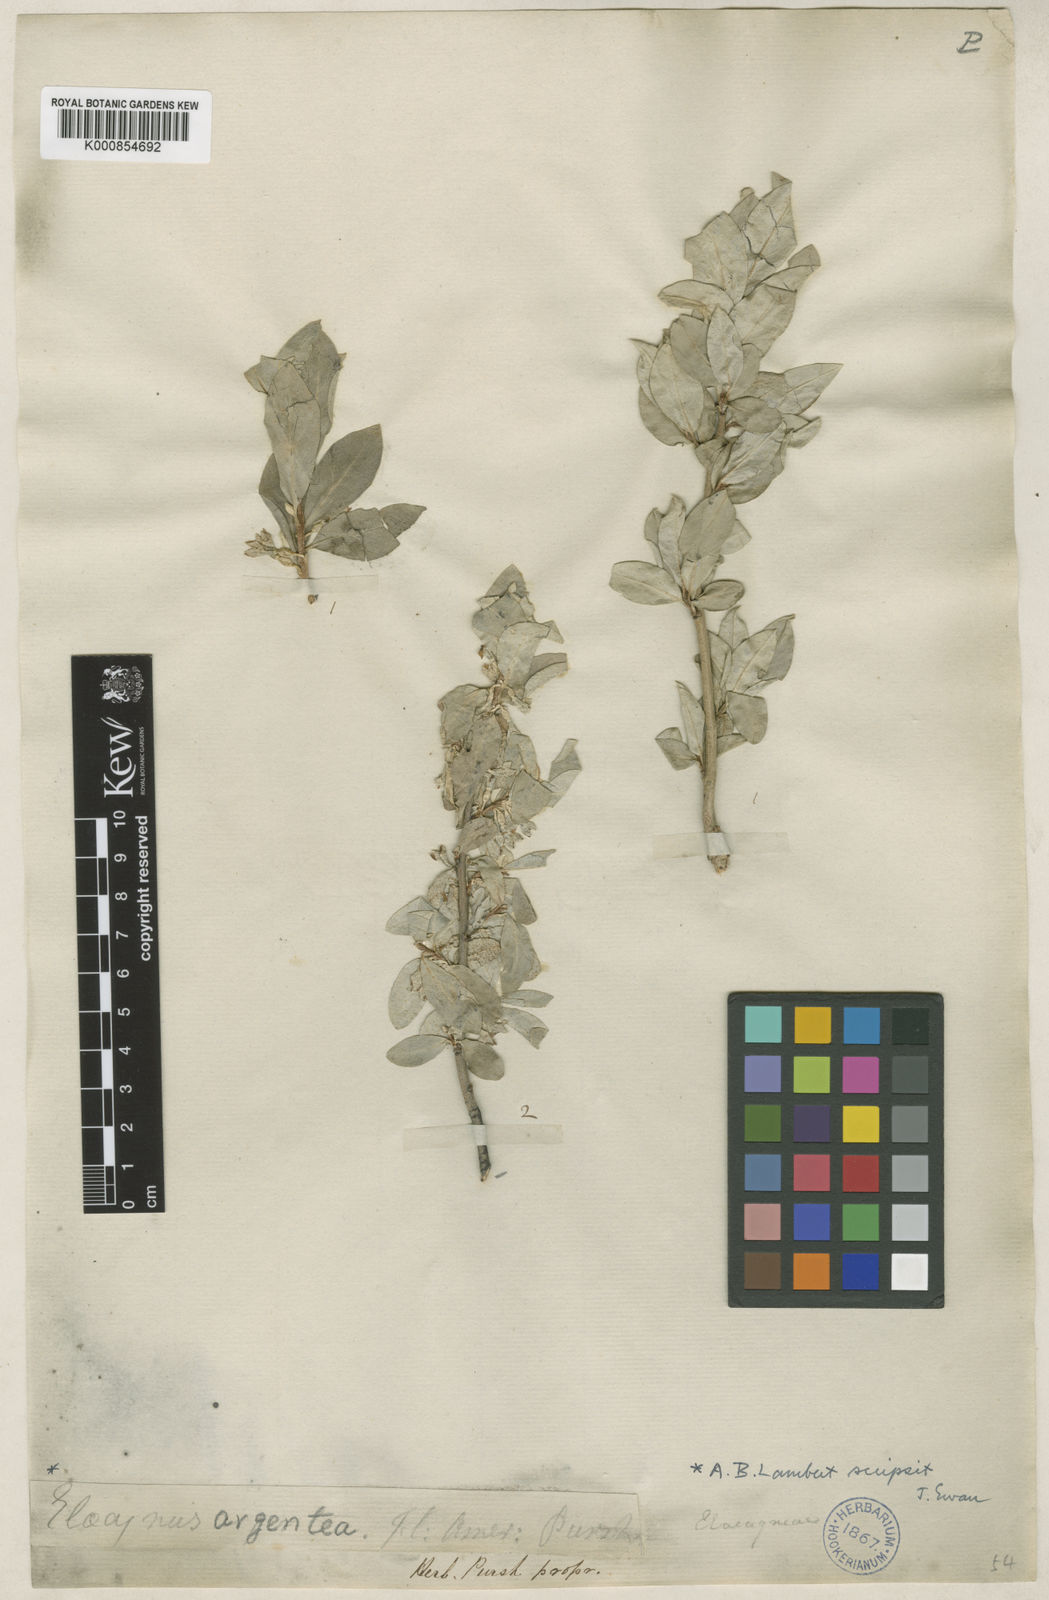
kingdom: Plantae
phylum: Tracheophyta
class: Magnoliopsida
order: Rosales
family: Elaeagnaceae
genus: Shepherdia
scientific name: Shepherdia argentea
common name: Silver buffaloberry
